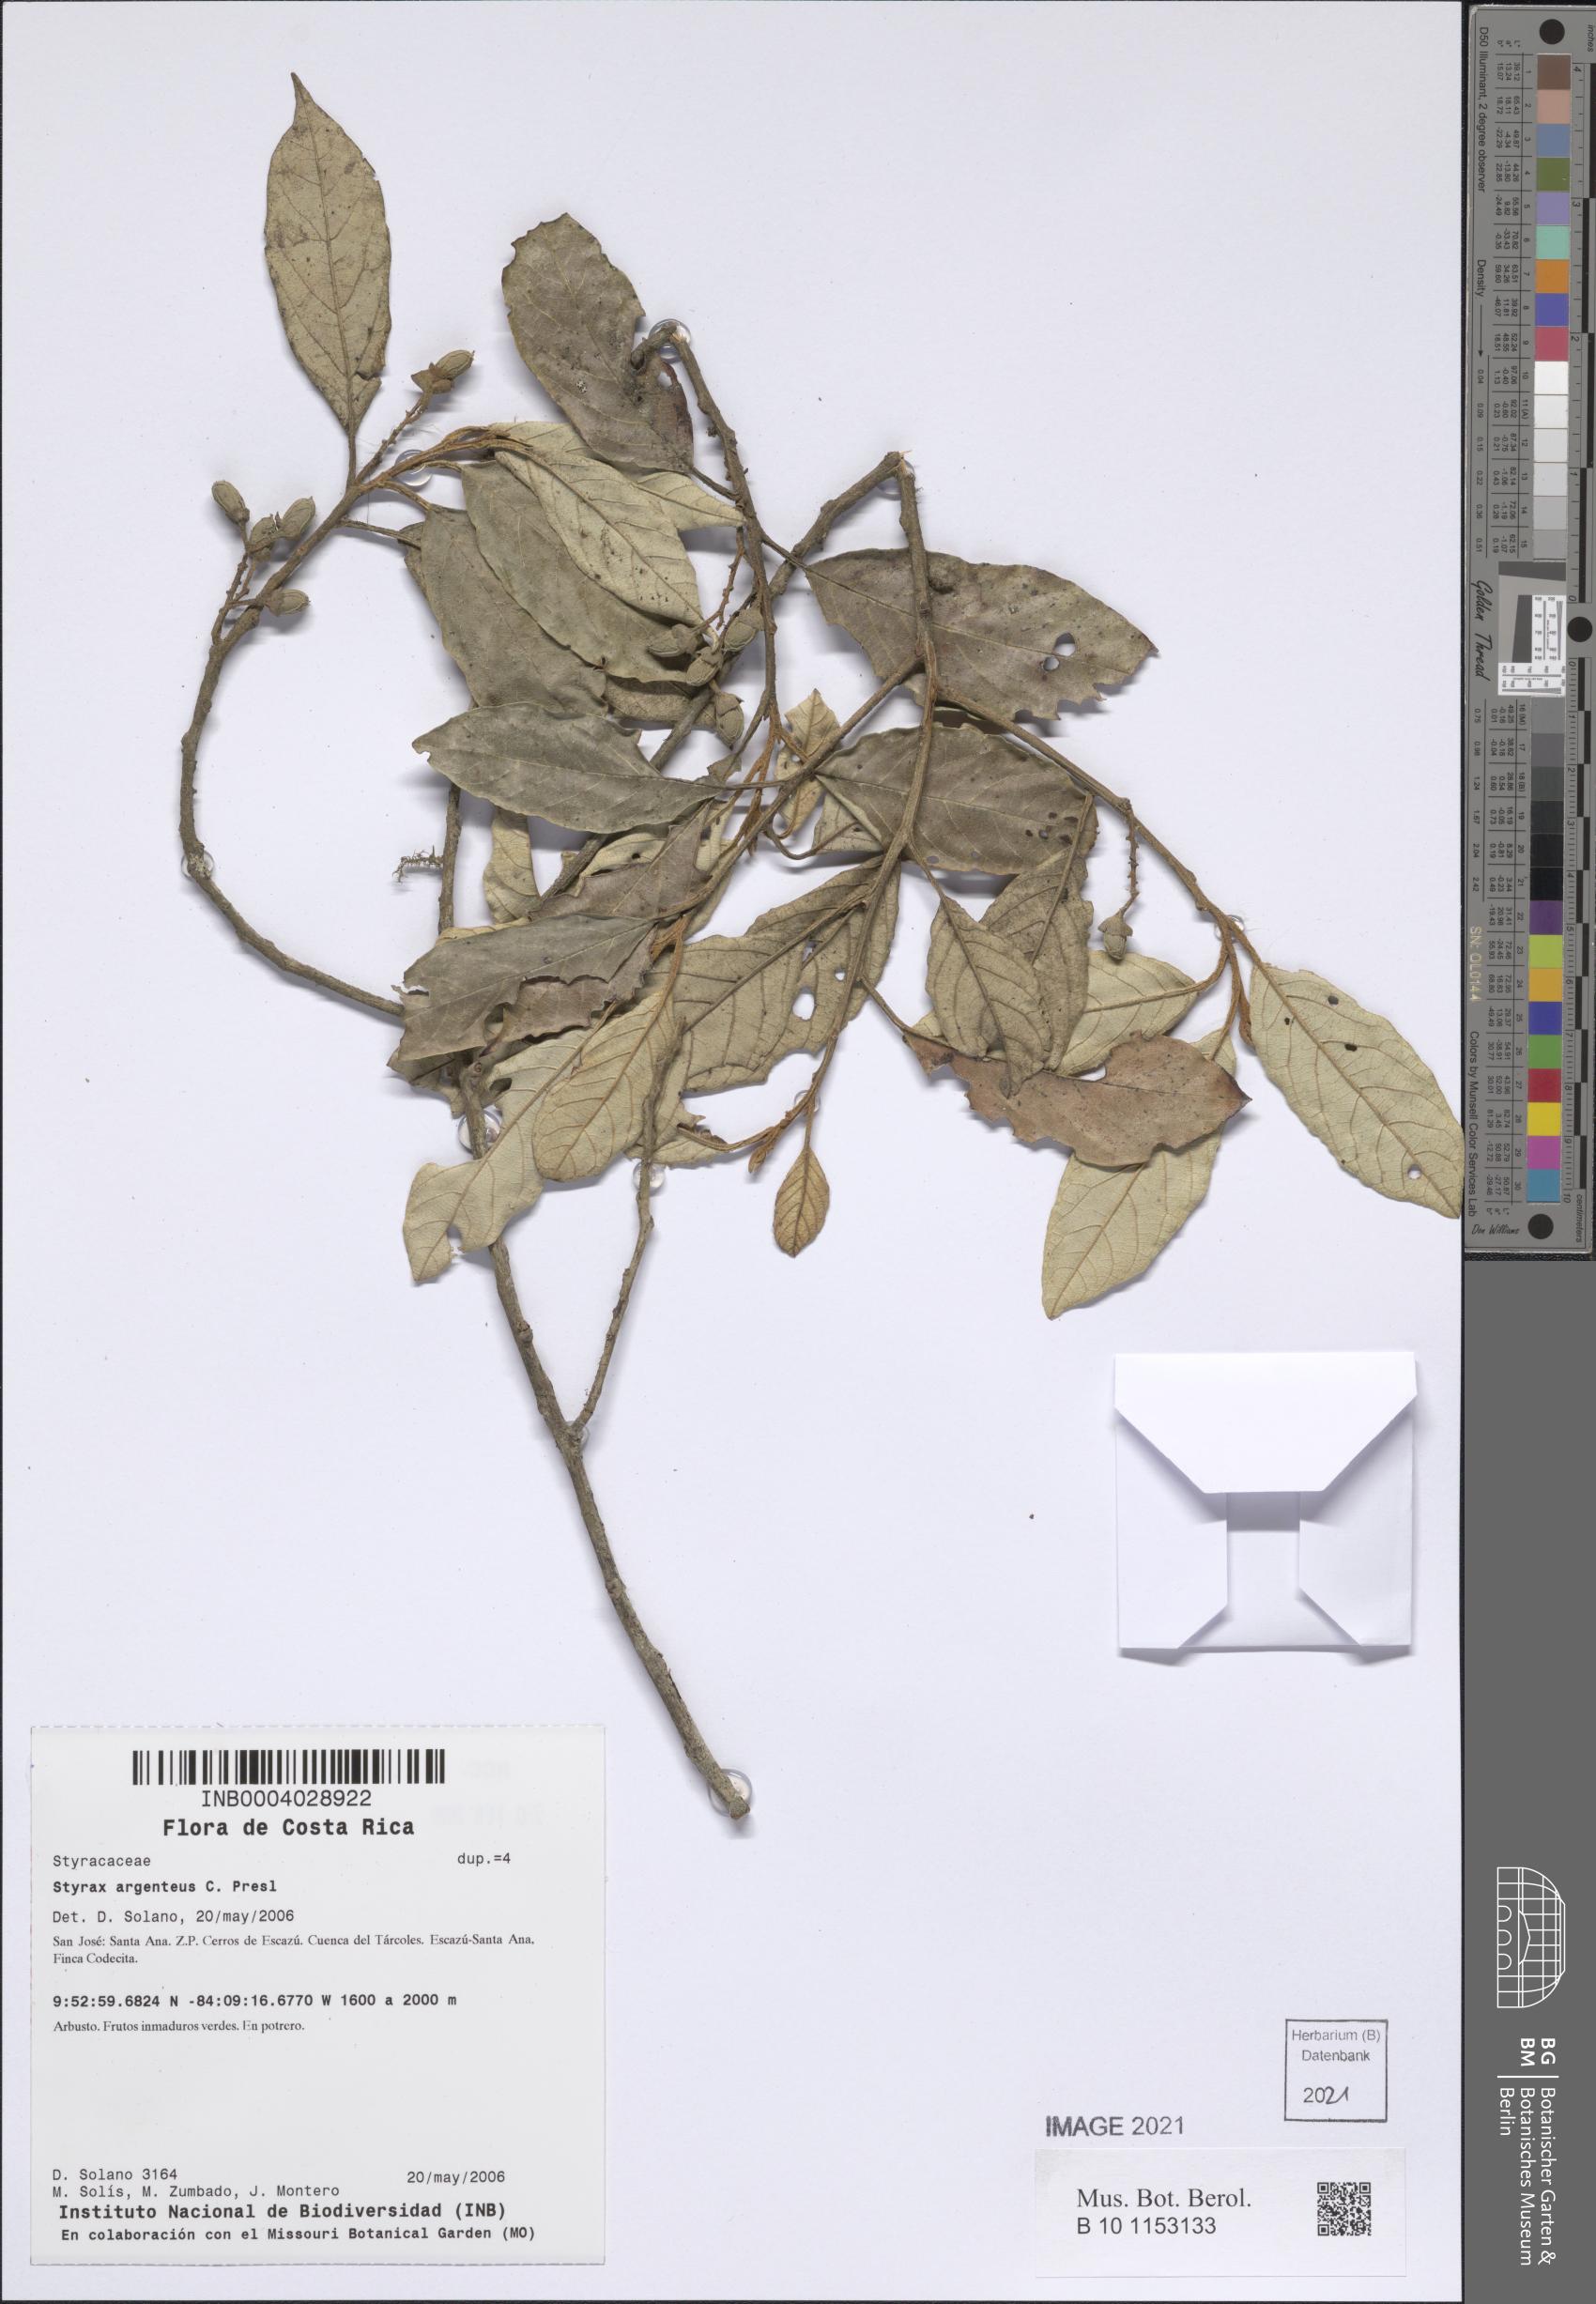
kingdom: Plantae
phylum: Tracheophyta
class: Magnoliopsida
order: Ericales
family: Styracaceae
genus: Styrax
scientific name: Styrax warscewiczii
